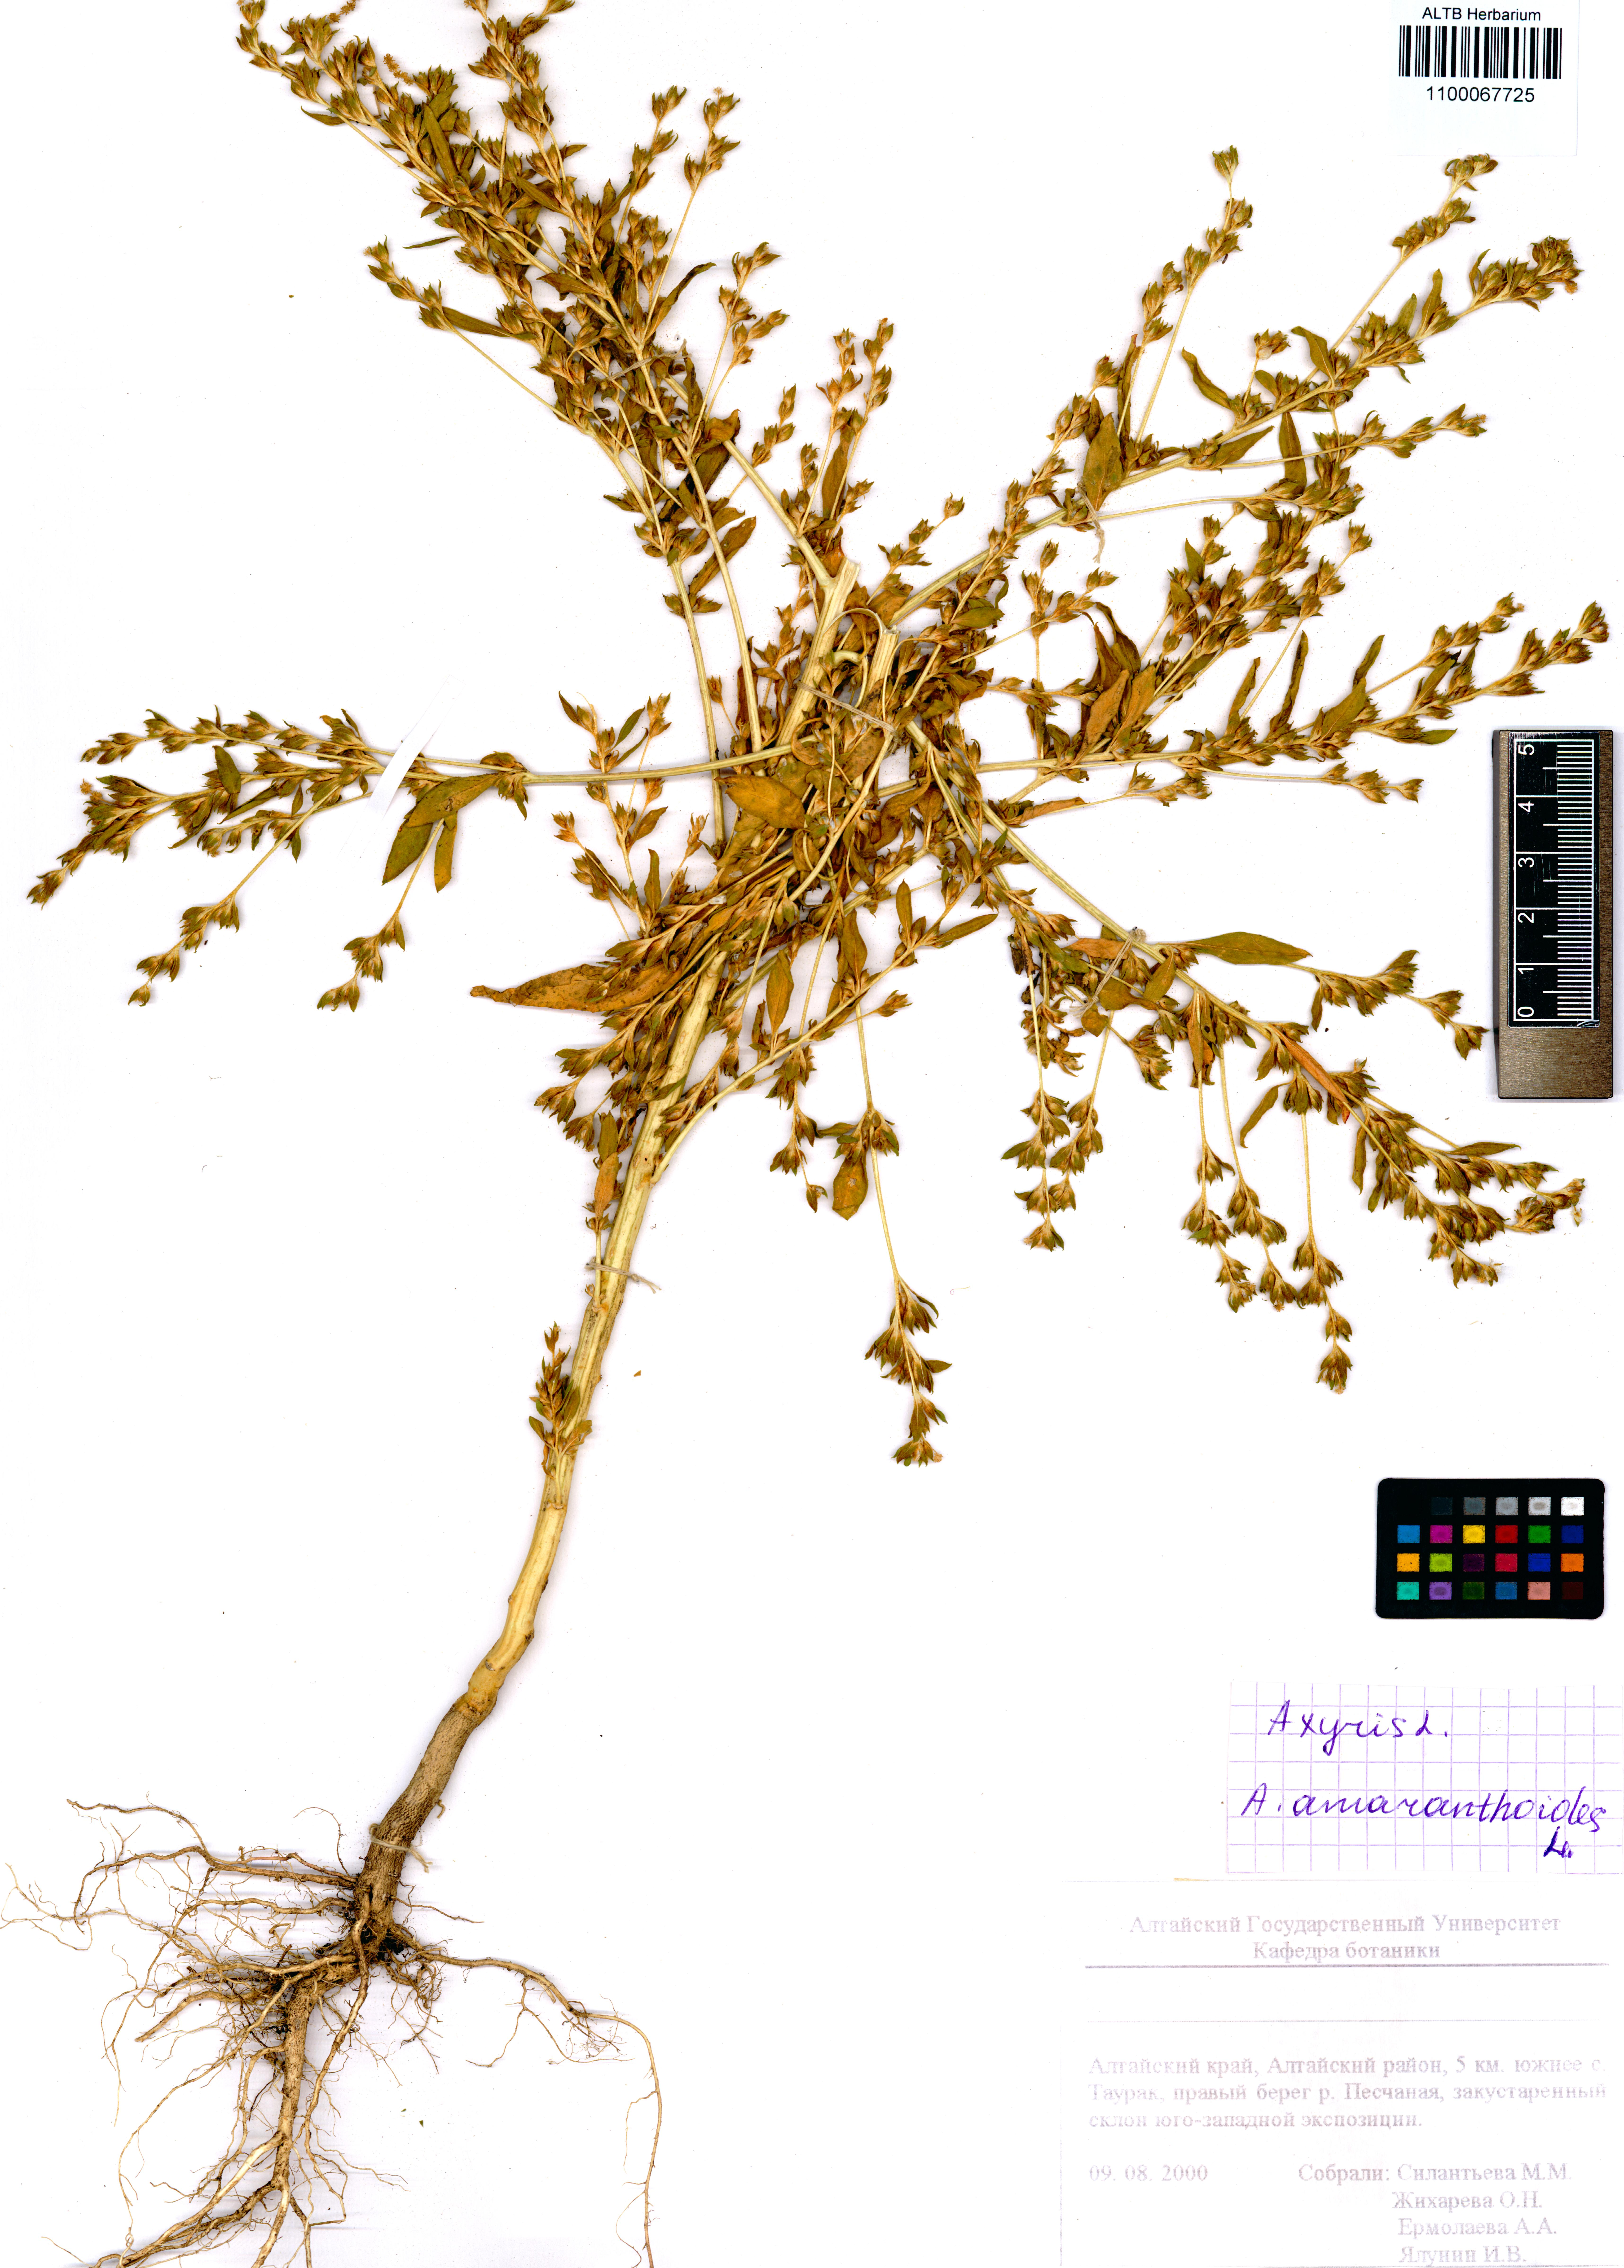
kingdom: Plantae
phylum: Tracheophyta
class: Magnoliopsida
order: Caryophyllales
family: Amaranthaceae
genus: Axyris
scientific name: Axyris amaranthoides
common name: Russian pigweed
